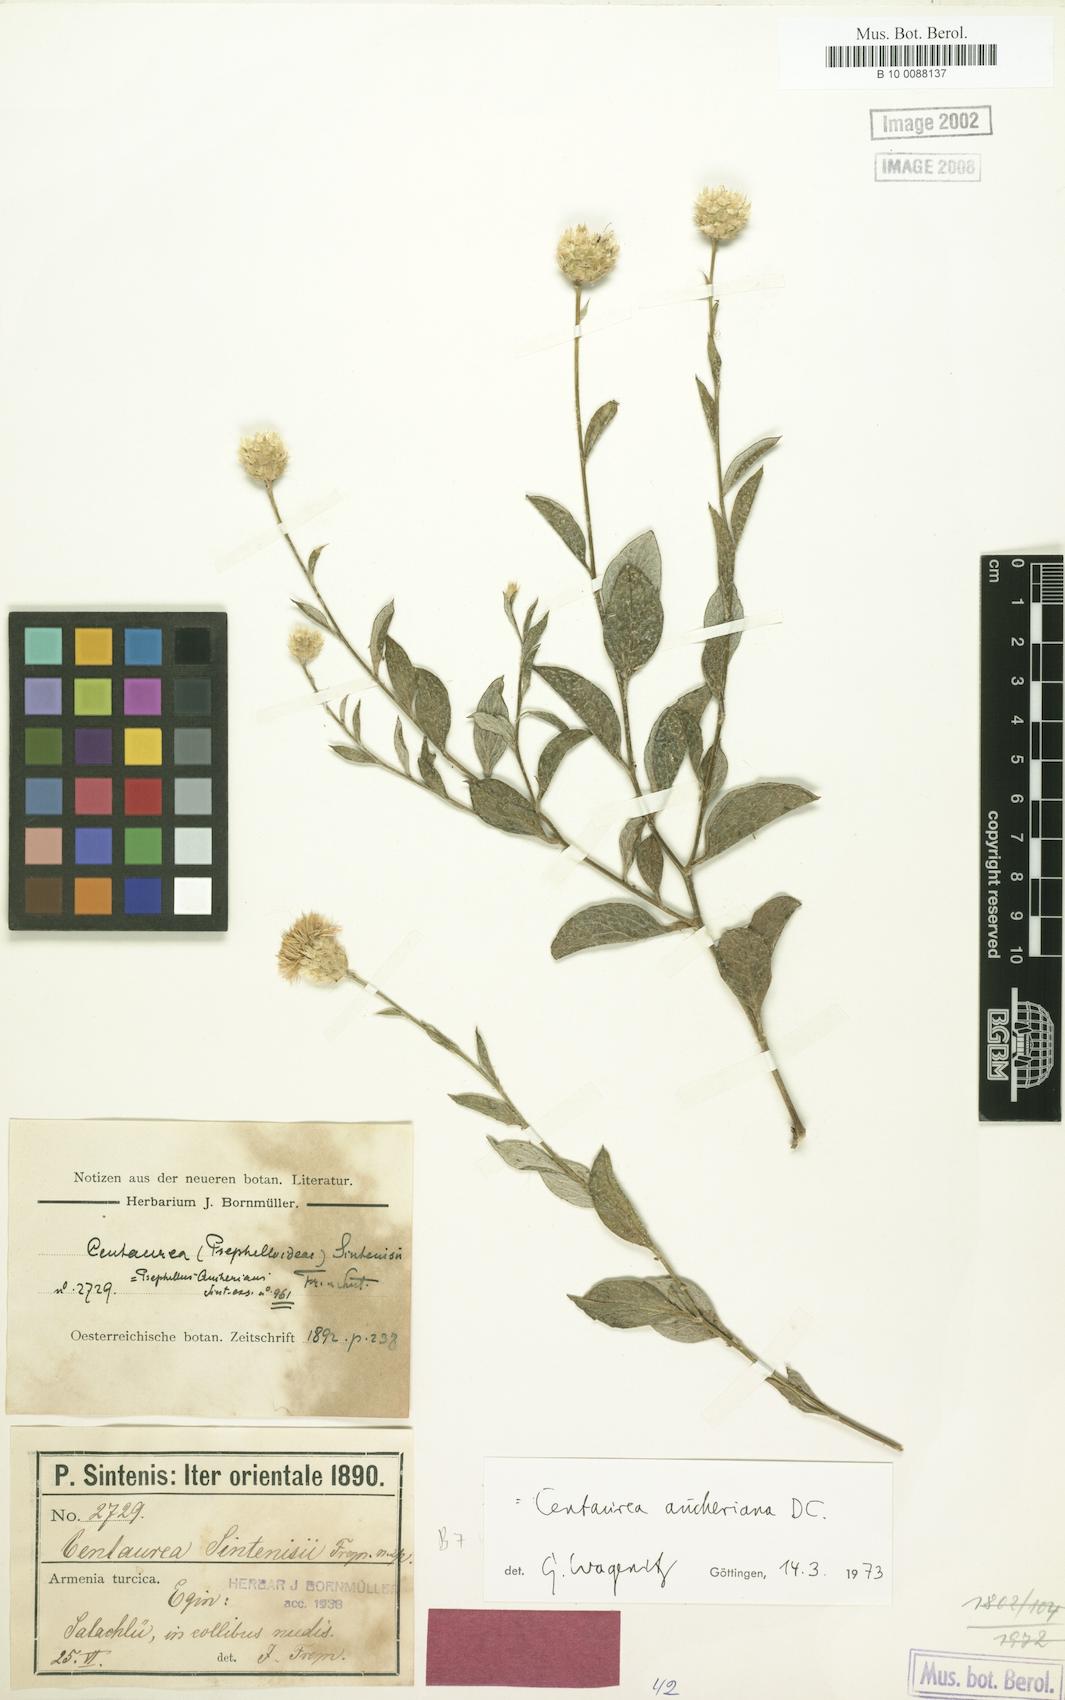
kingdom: Plantae
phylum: Tracheophyta
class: Magnoliopsida
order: Asterales
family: Asteraceae
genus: Centaurea
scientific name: Centaurea aucheri
